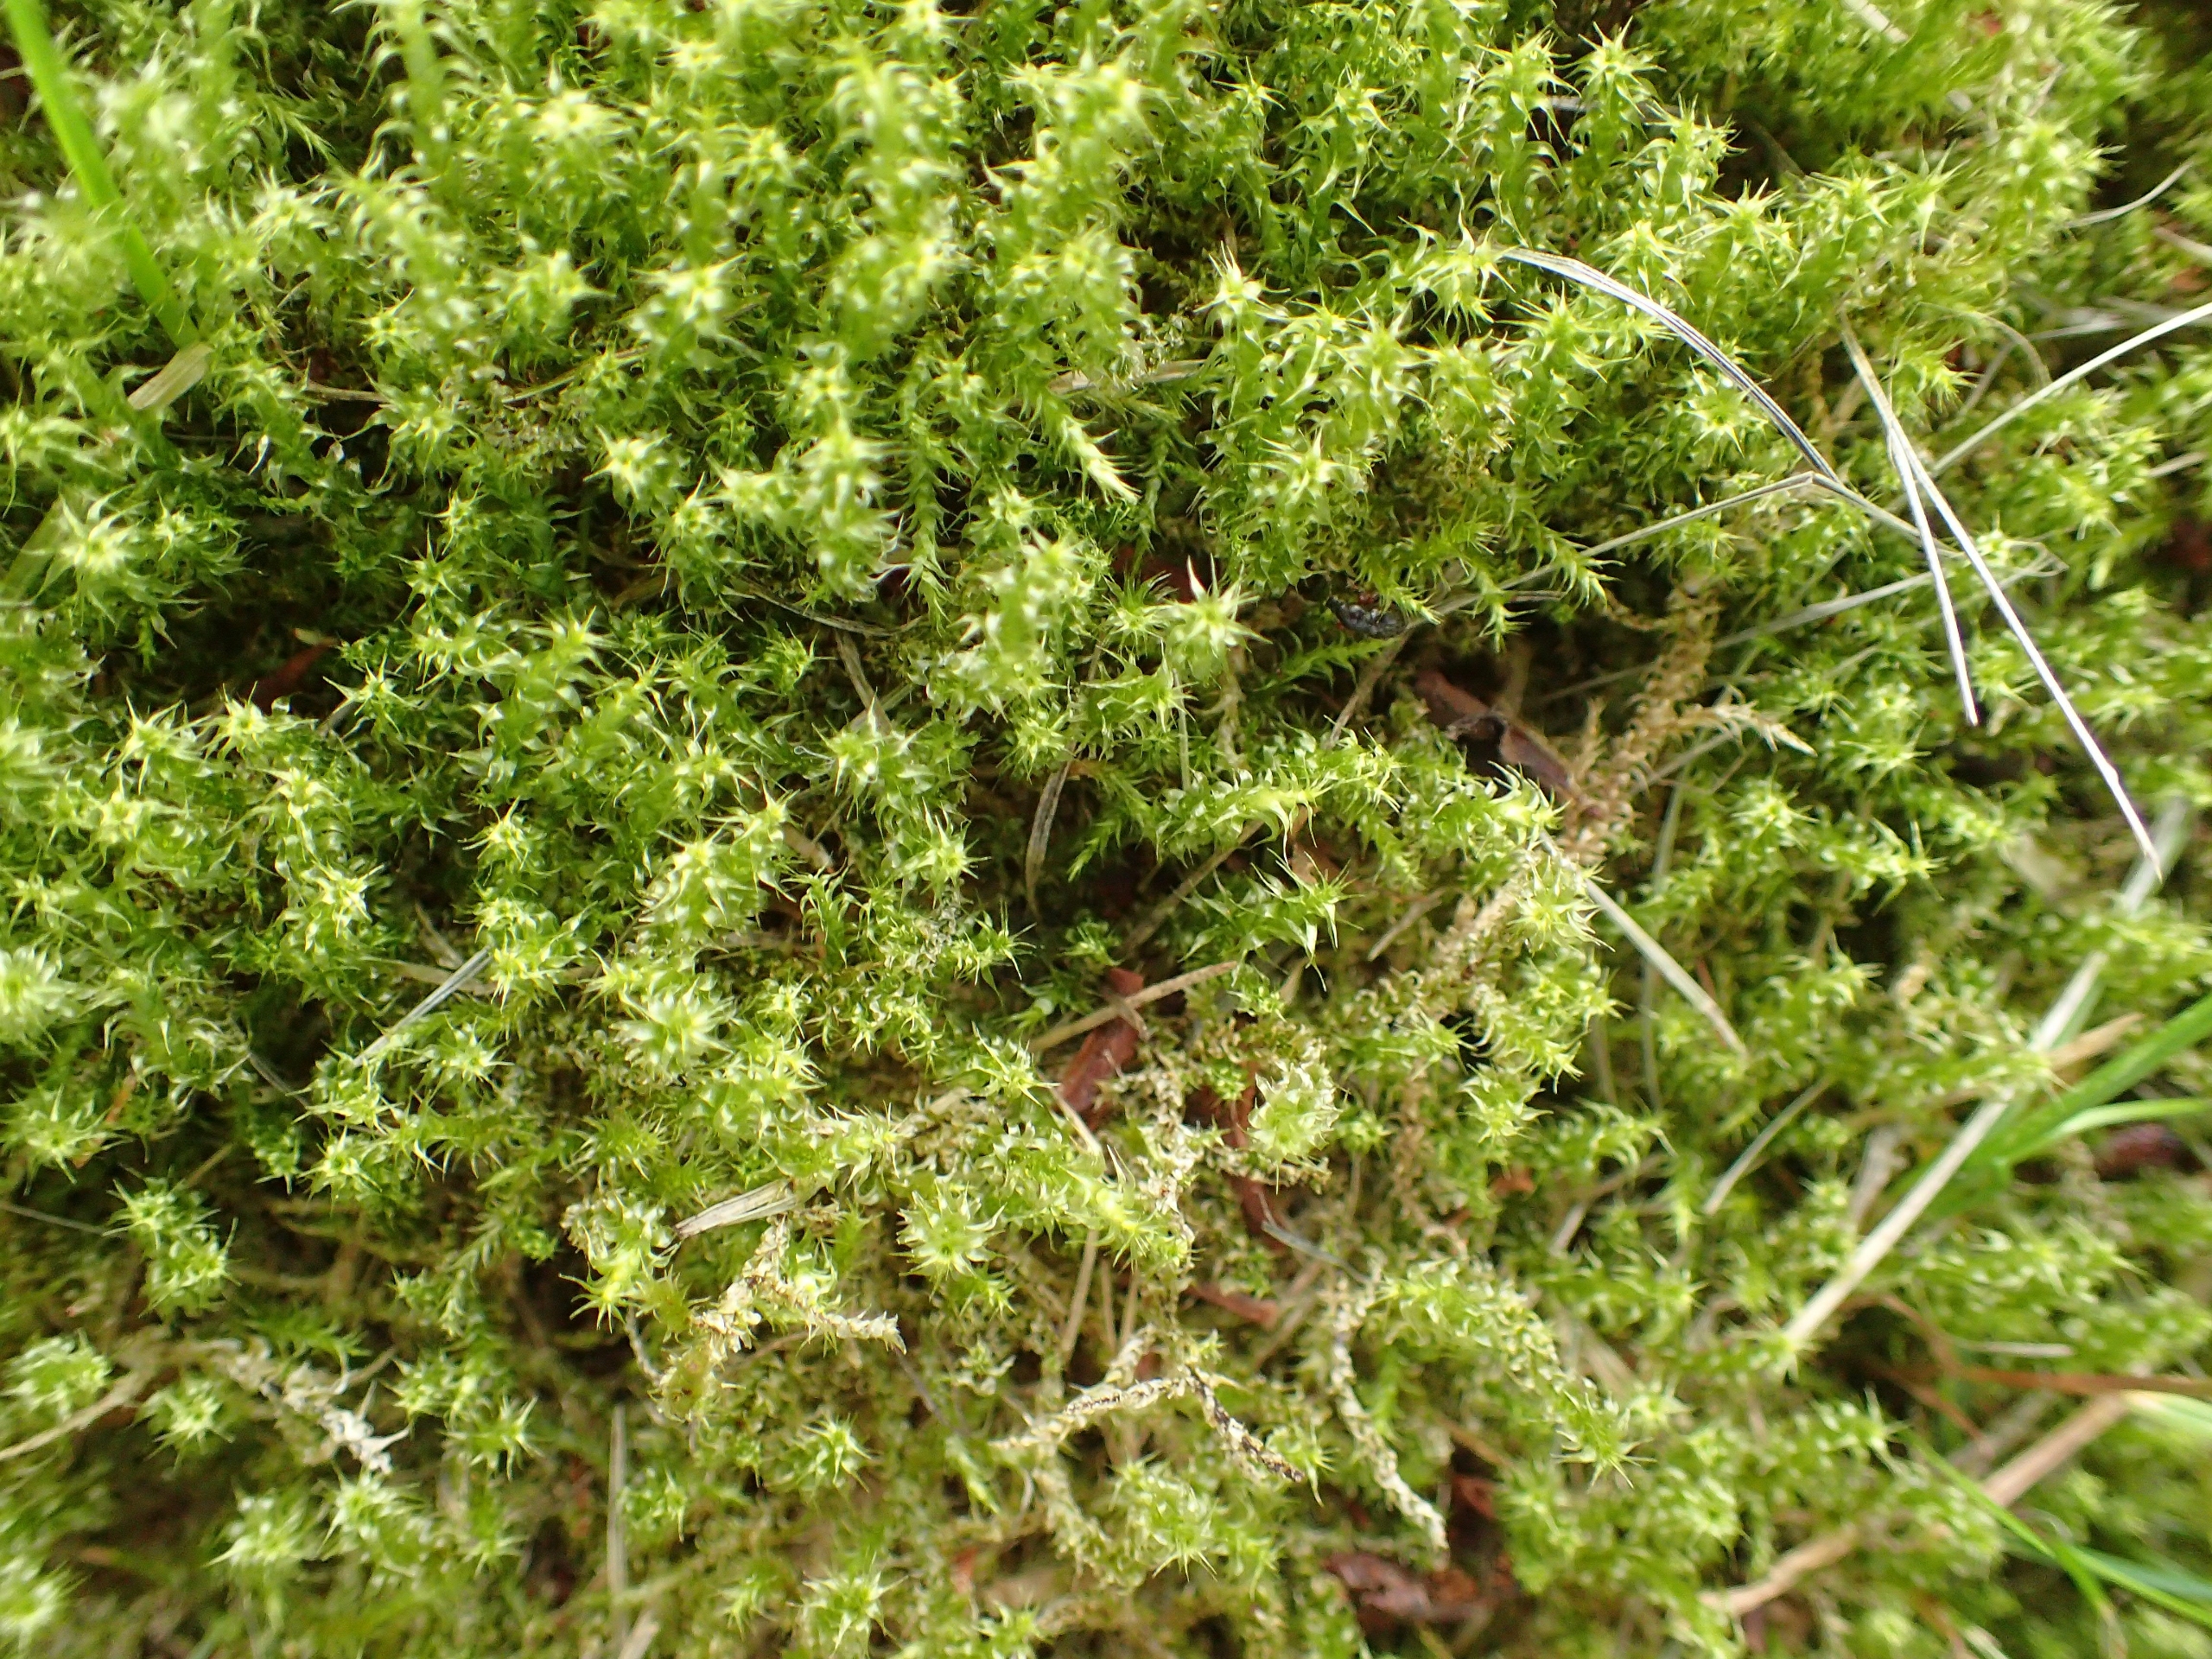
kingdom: Plantae
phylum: Bryophyta
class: Bryopsida
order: Hypnales
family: Hylocomiaceae
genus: Rhytidiadelphus
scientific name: Rhytidiadelphus squarrosus
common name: Plæne-kransemos
